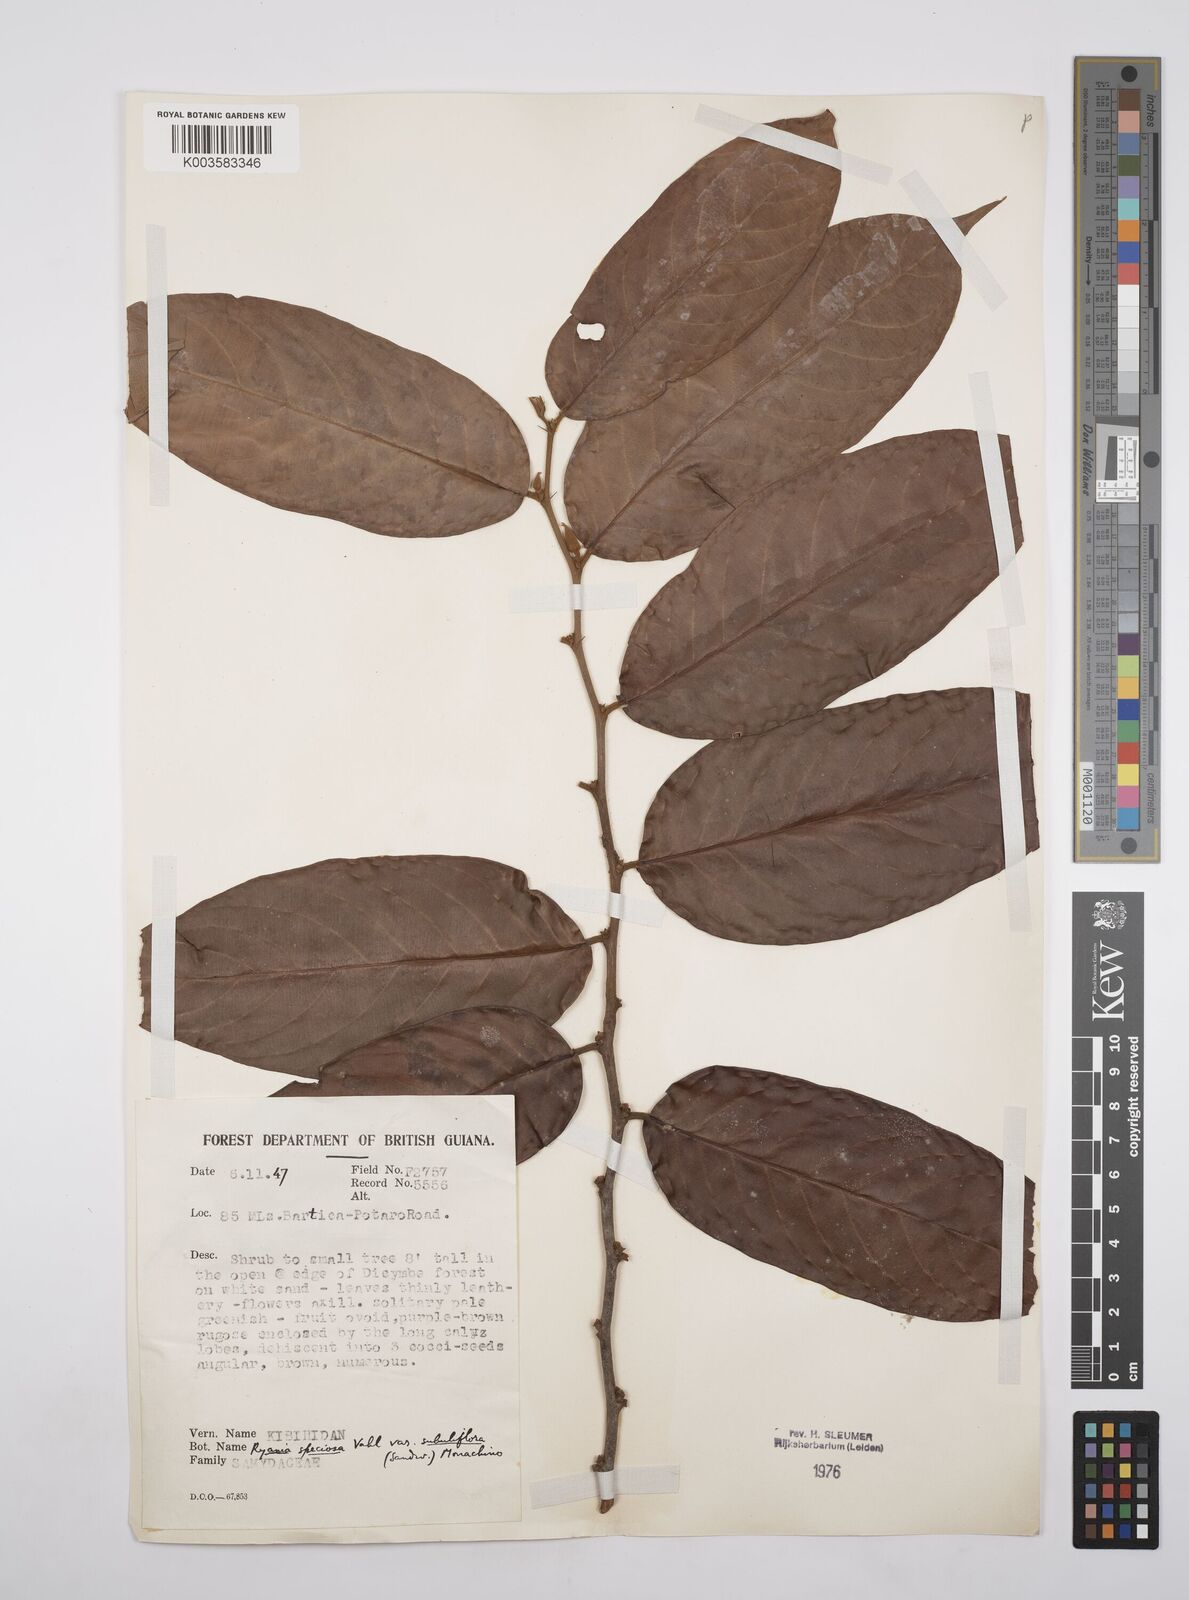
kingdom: Plantae
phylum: Tracheophyta
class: Magnoliopsida
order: Malpighiales
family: Salicaceae
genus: Ryania
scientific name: Ryania speciosa
